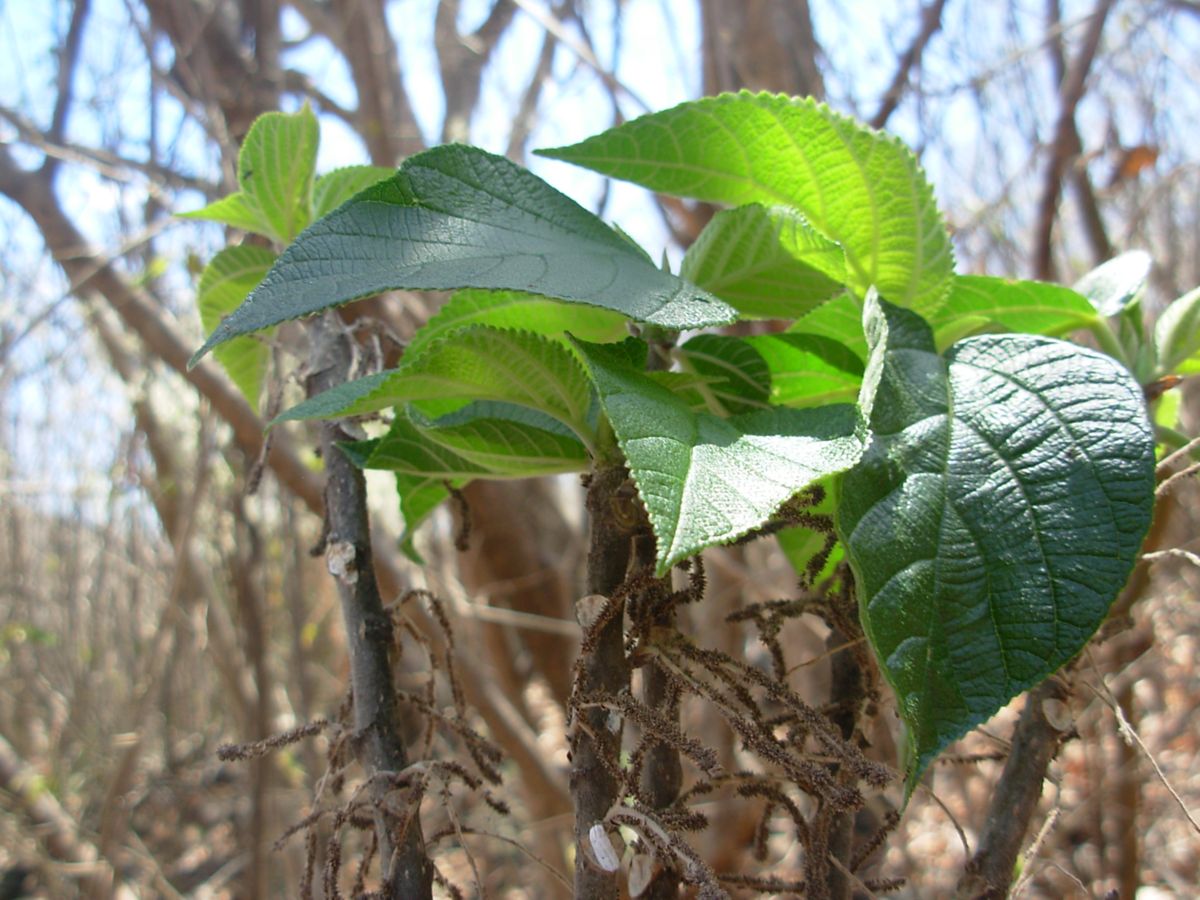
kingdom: Plantae
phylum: Tracheophyta
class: Magnoliopsida
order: Rosales
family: Urticaceae
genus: Myriocarpa
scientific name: Myriocarpa bifurca
